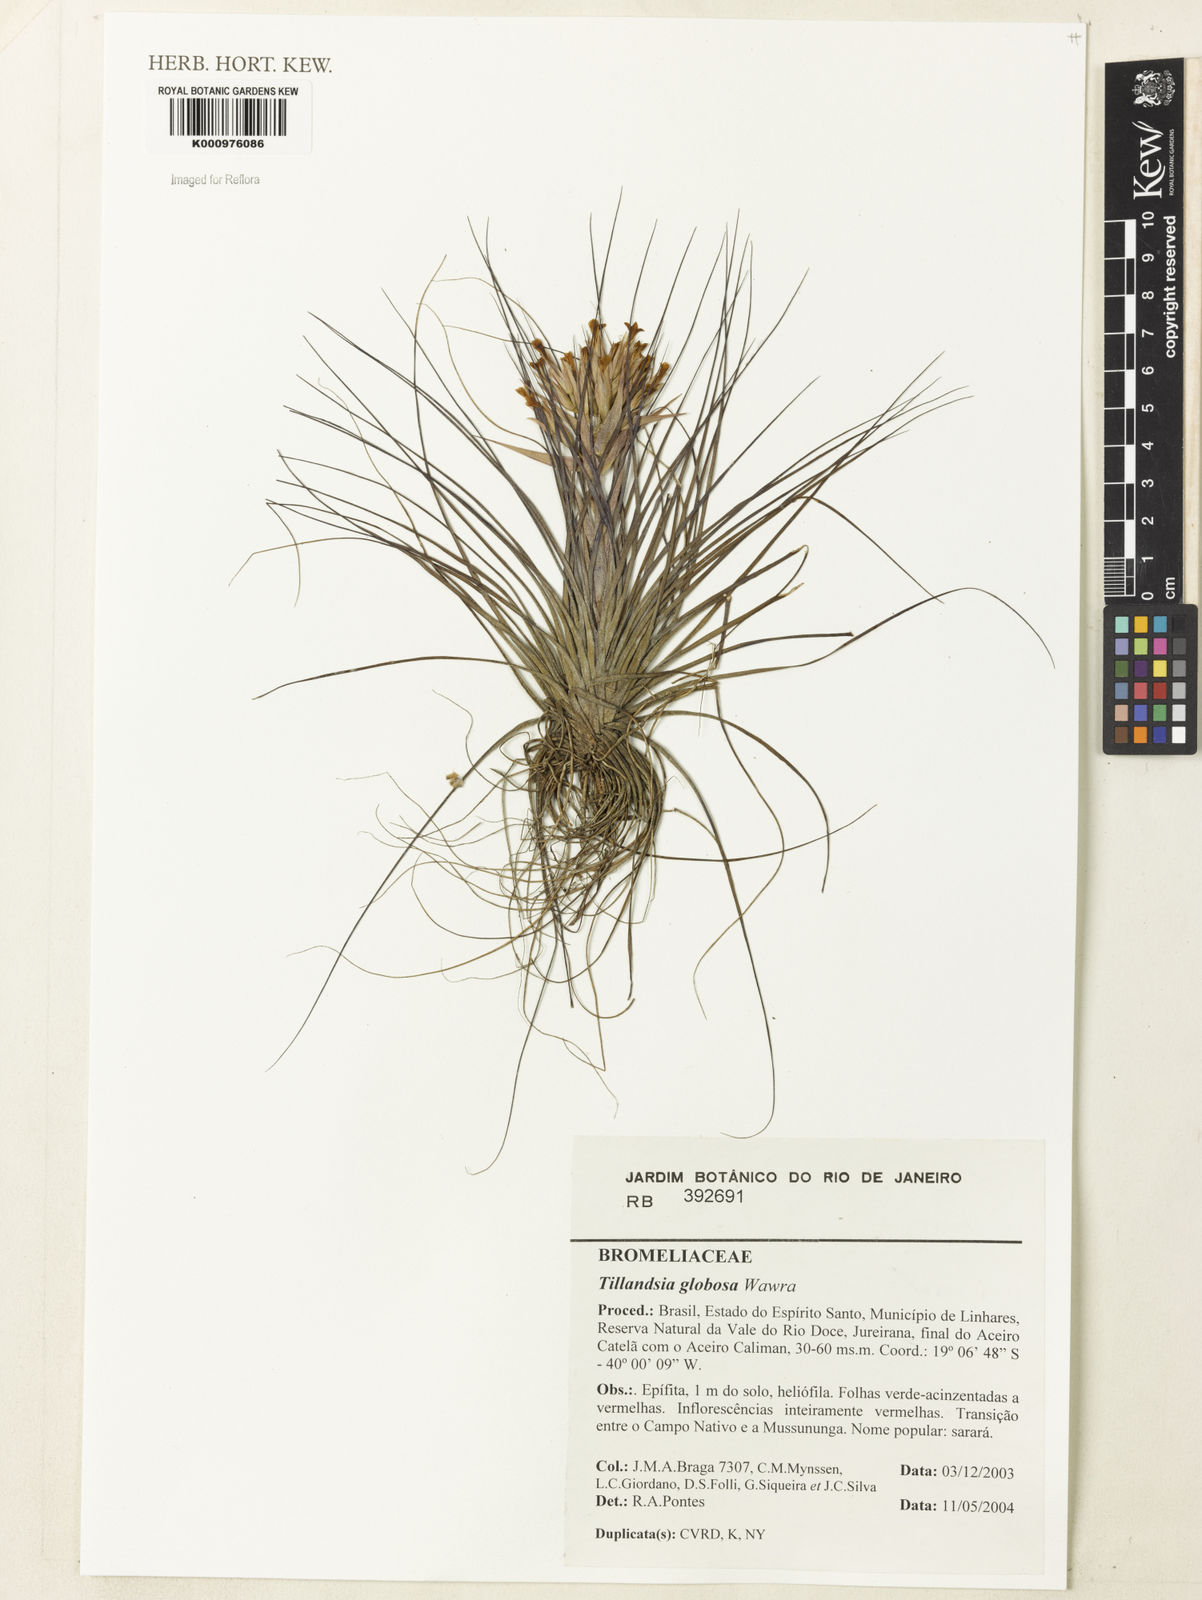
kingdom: Plantae
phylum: Tracheophyta
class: Liliopsida
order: Poales
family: Bromeliaceae
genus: Tillandsia
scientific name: Tillandsia globosa
